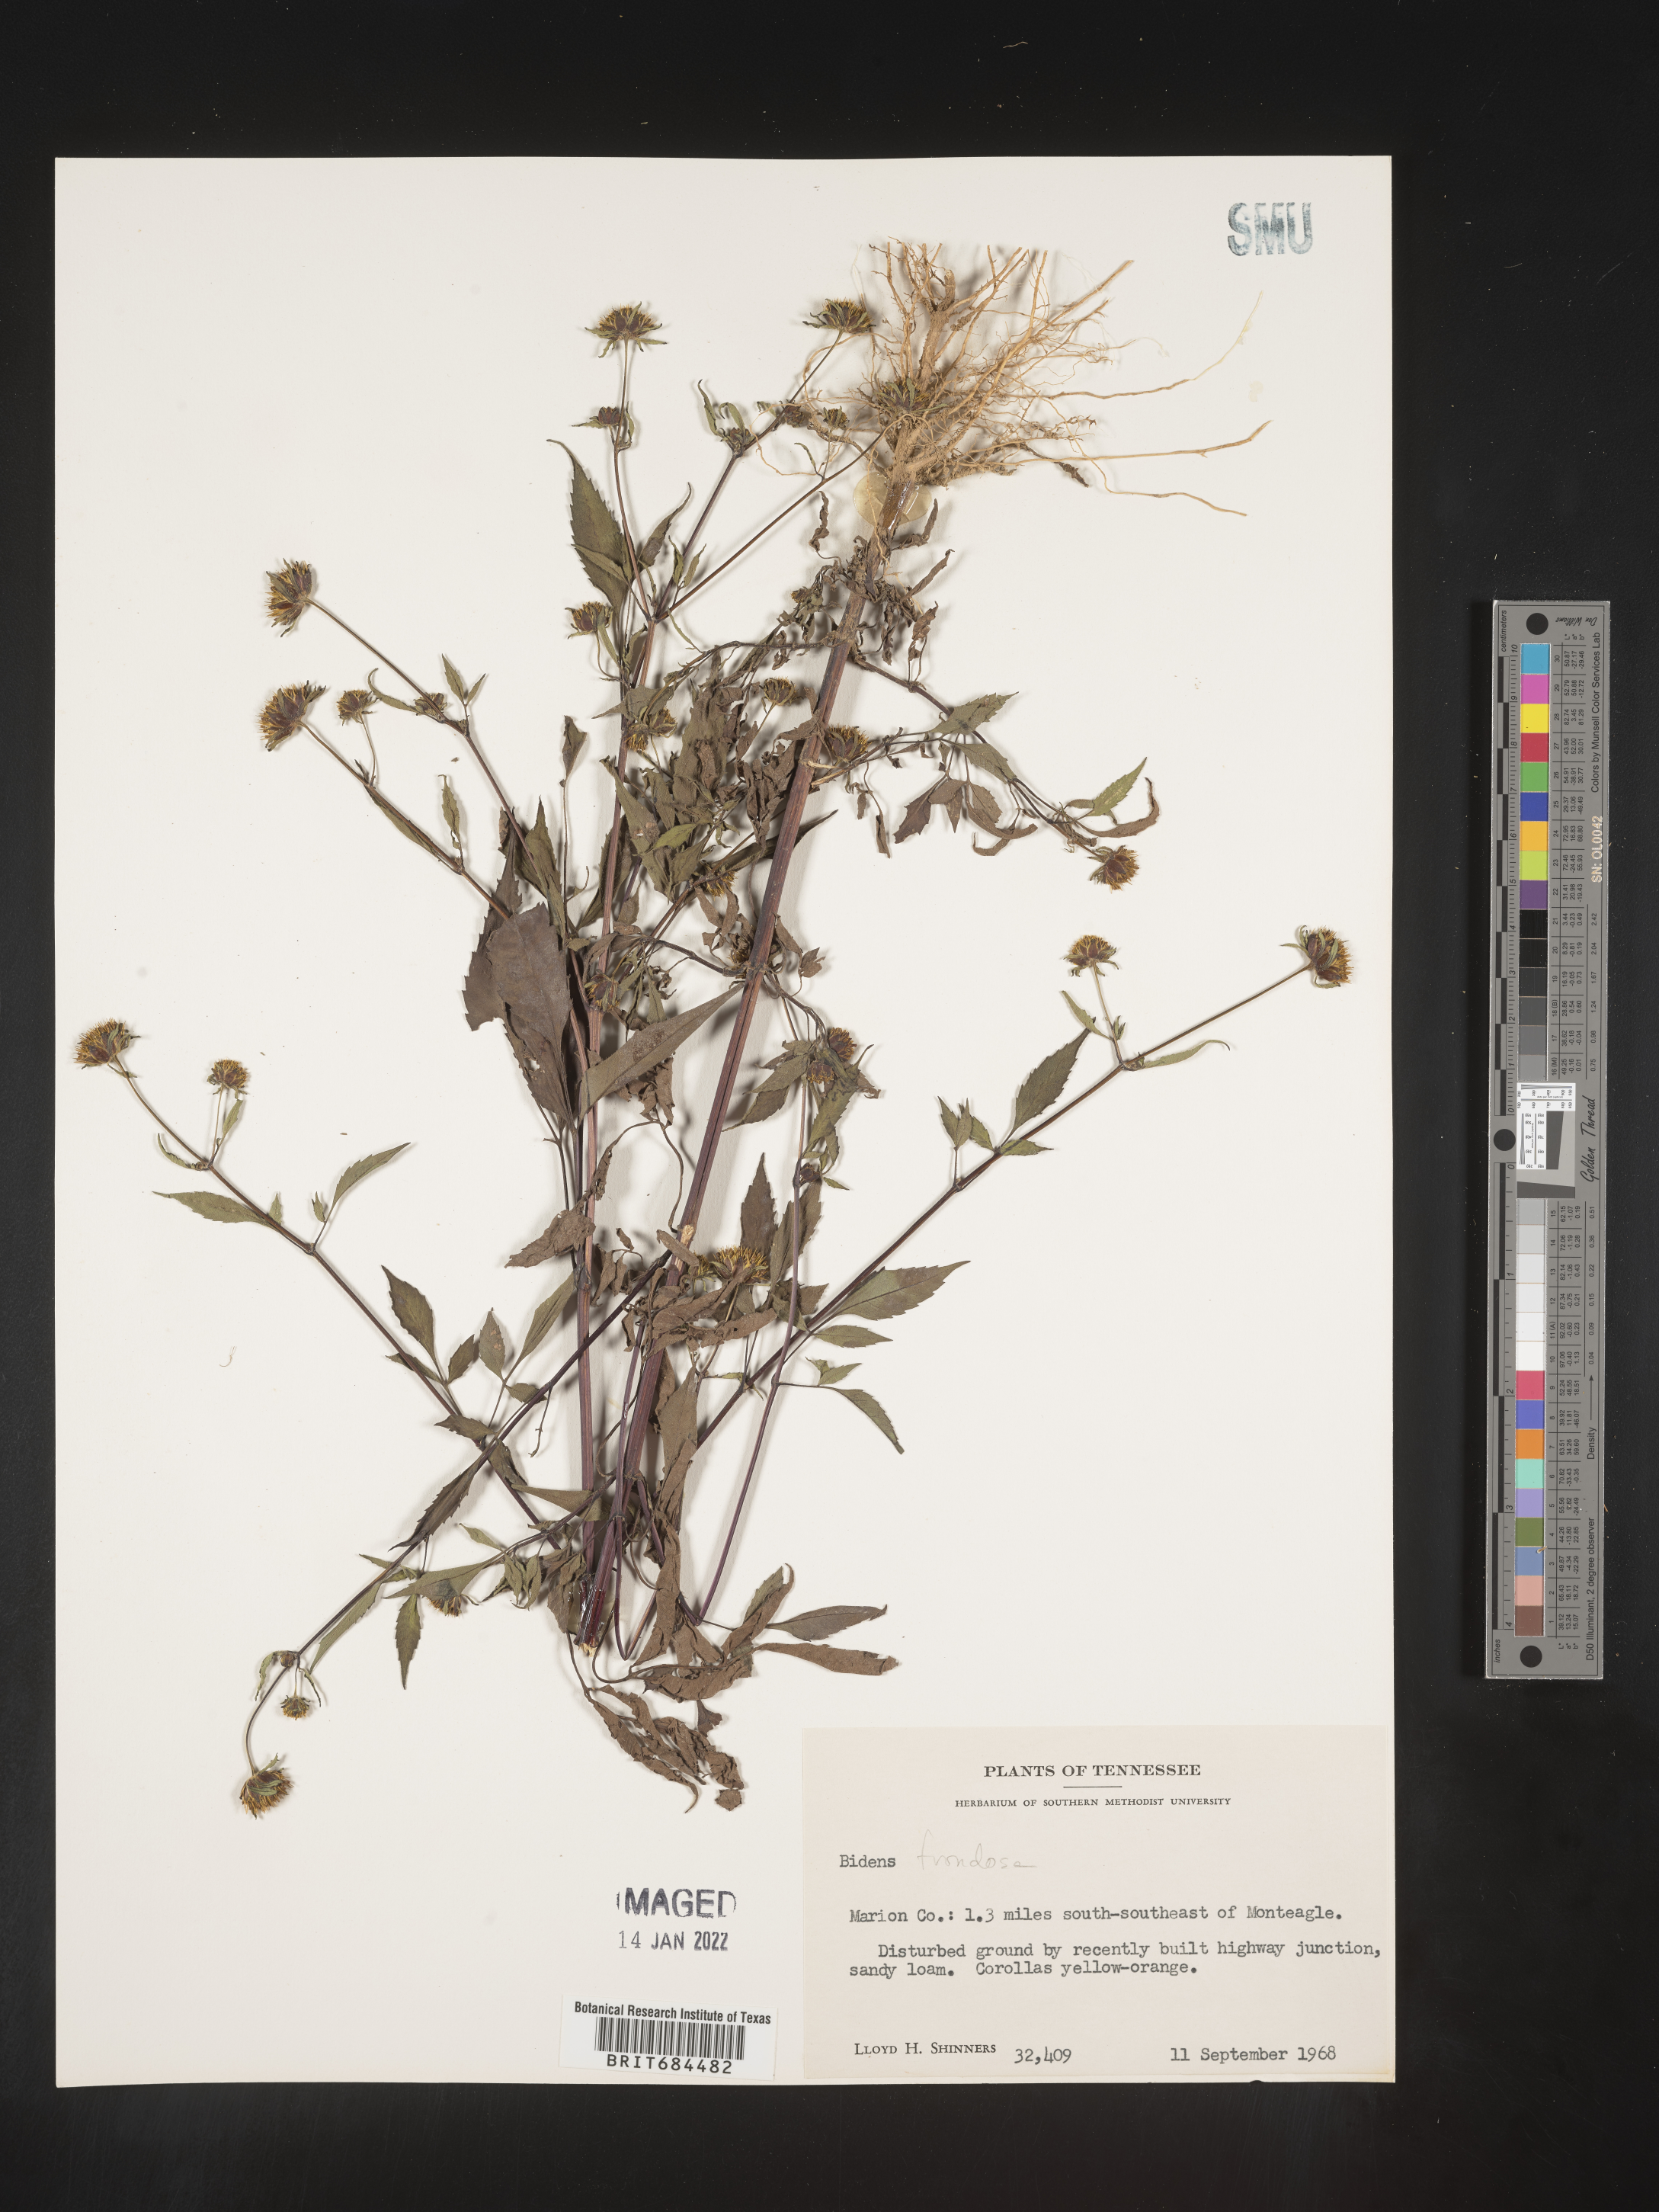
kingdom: Plantae
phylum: Tracheophyta
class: Magnoliopsida
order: Asterales
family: Asteraceae
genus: Bidens
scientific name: Bidens frondosa
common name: Beggarticks
